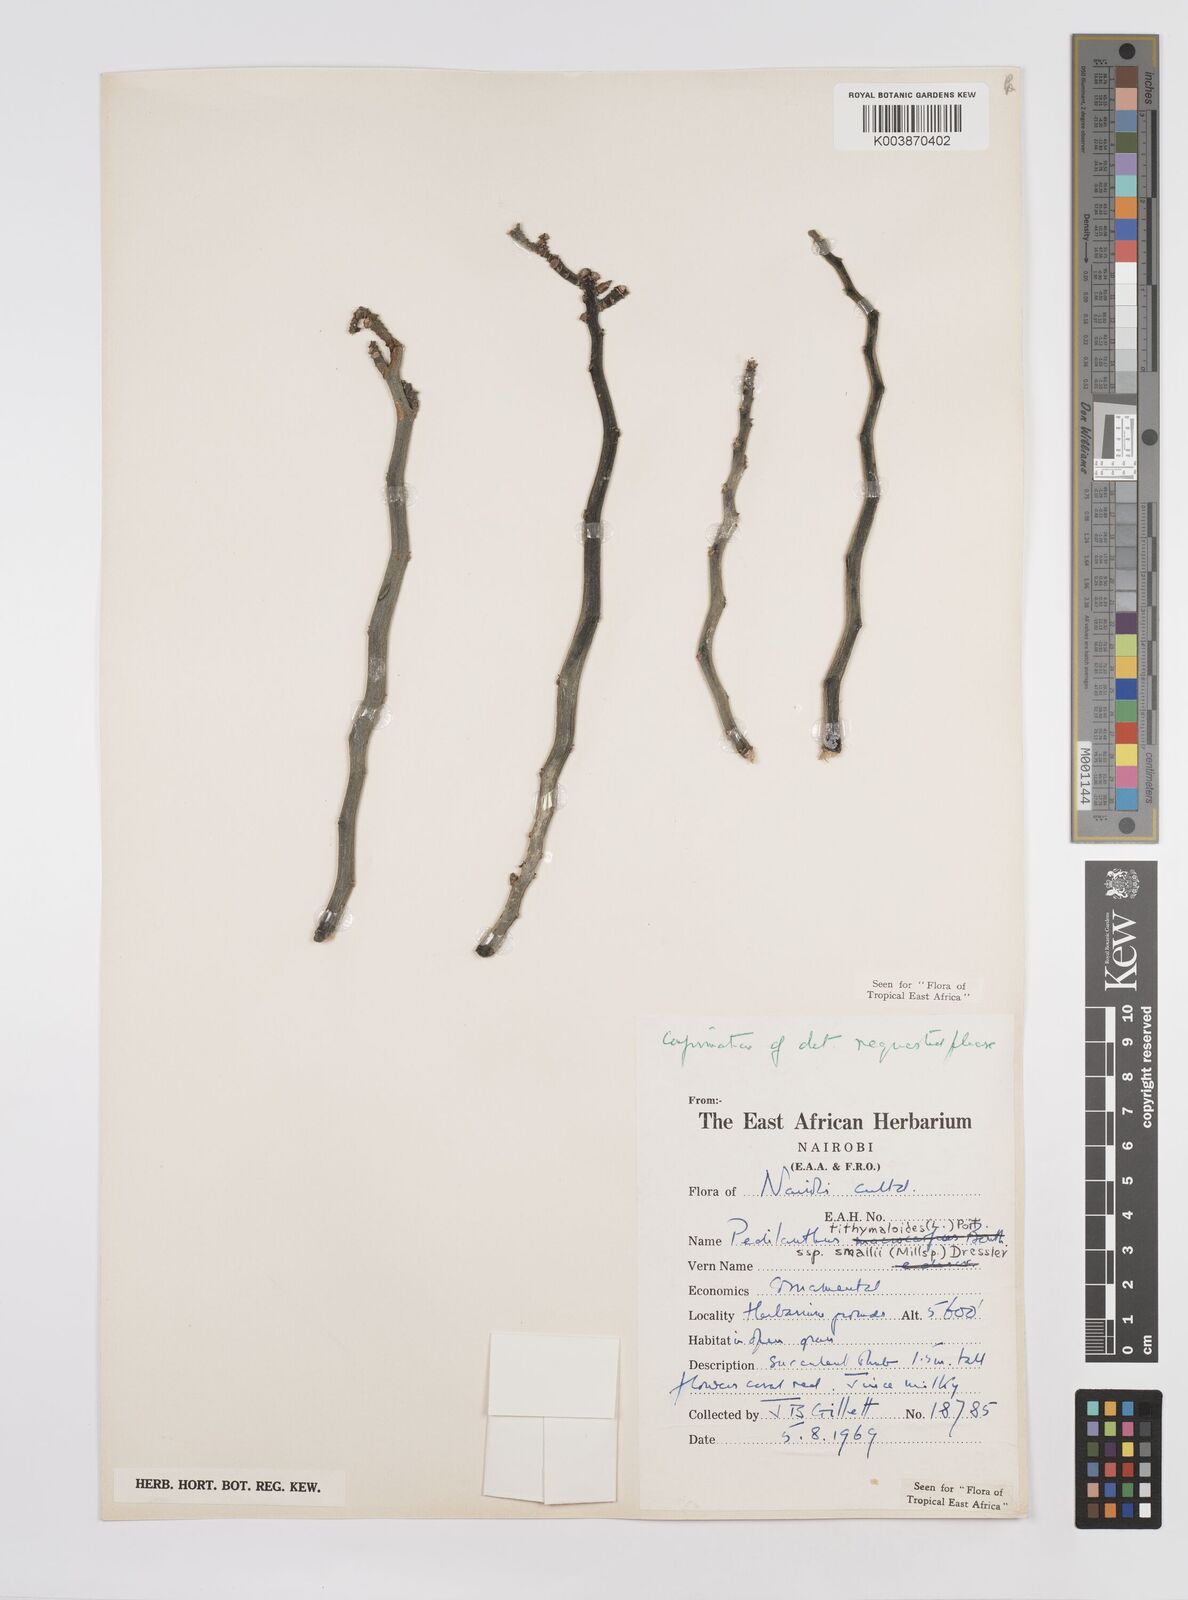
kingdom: Plantae
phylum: Tracheophyta
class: Magnoliopsida
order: Malpighiales
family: Euphorbiaceae
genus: Euphorbia
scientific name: Euphorbia tithymaloides
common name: Slipperplant
